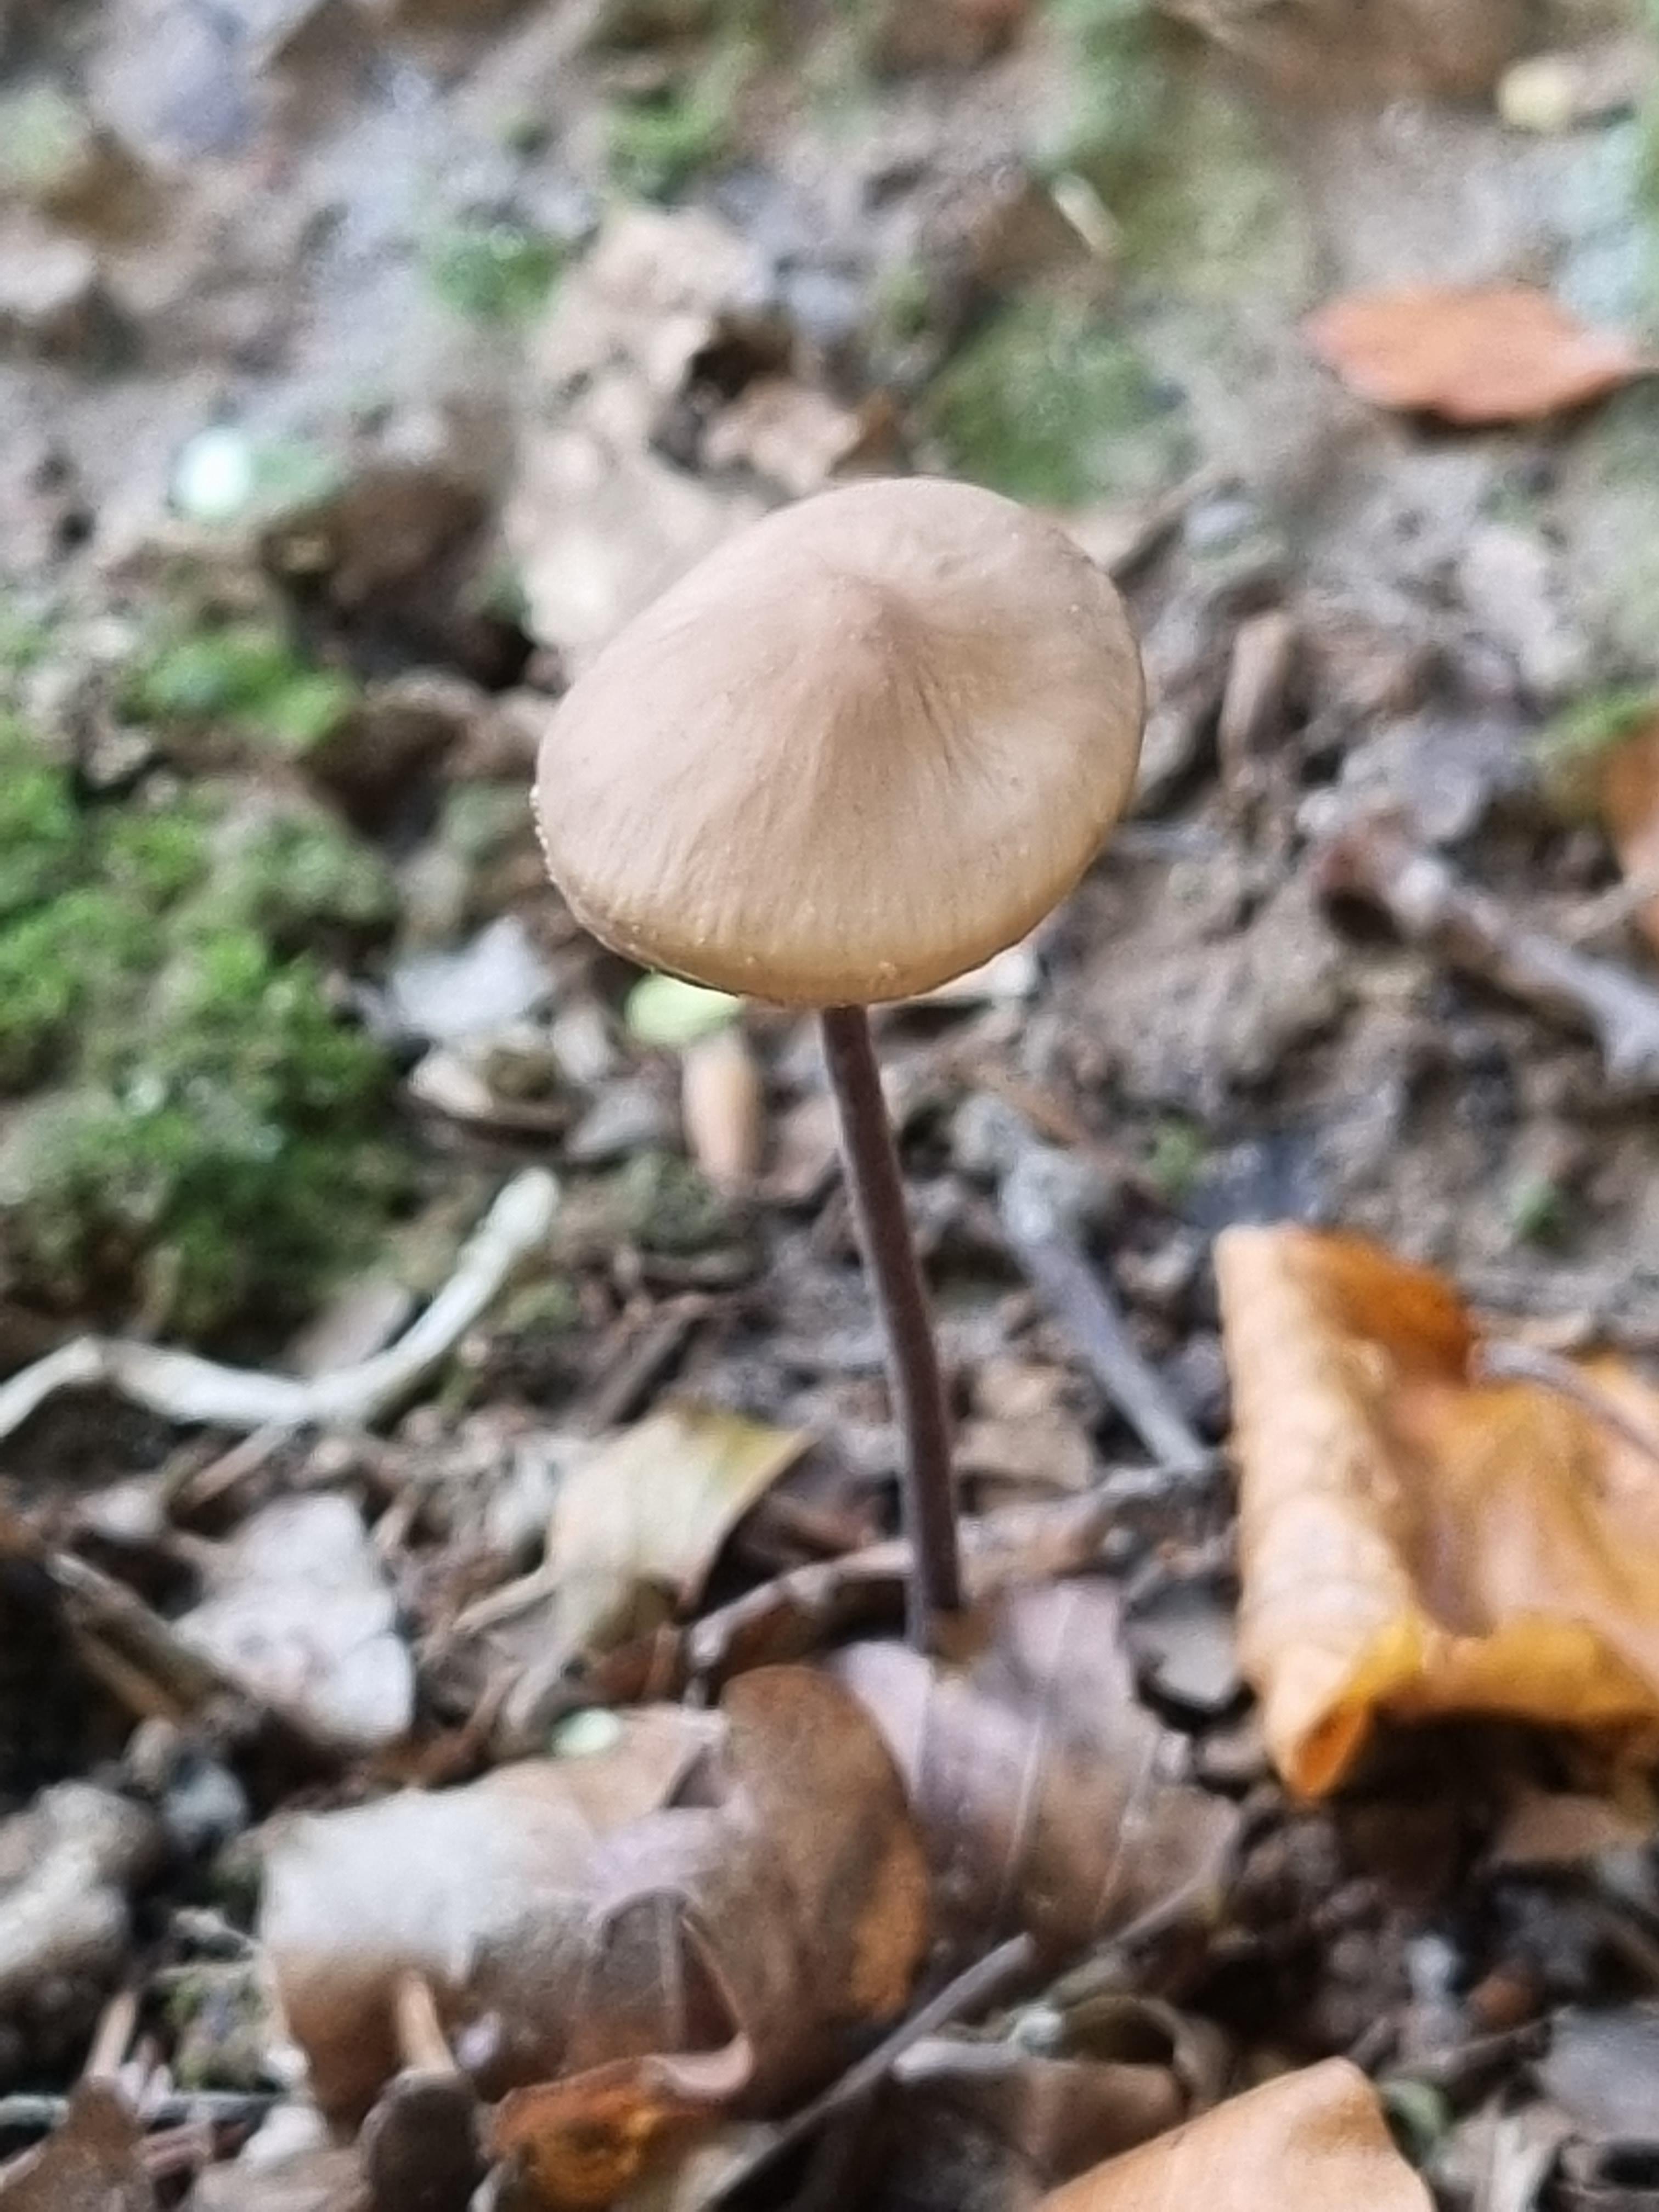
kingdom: Fungi
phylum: Basidiomycota
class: Agaricomycetes
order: Agaricales
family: Omphalotaceae
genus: Mycetinis
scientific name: Mycetinis alliaceus
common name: stor løghat
